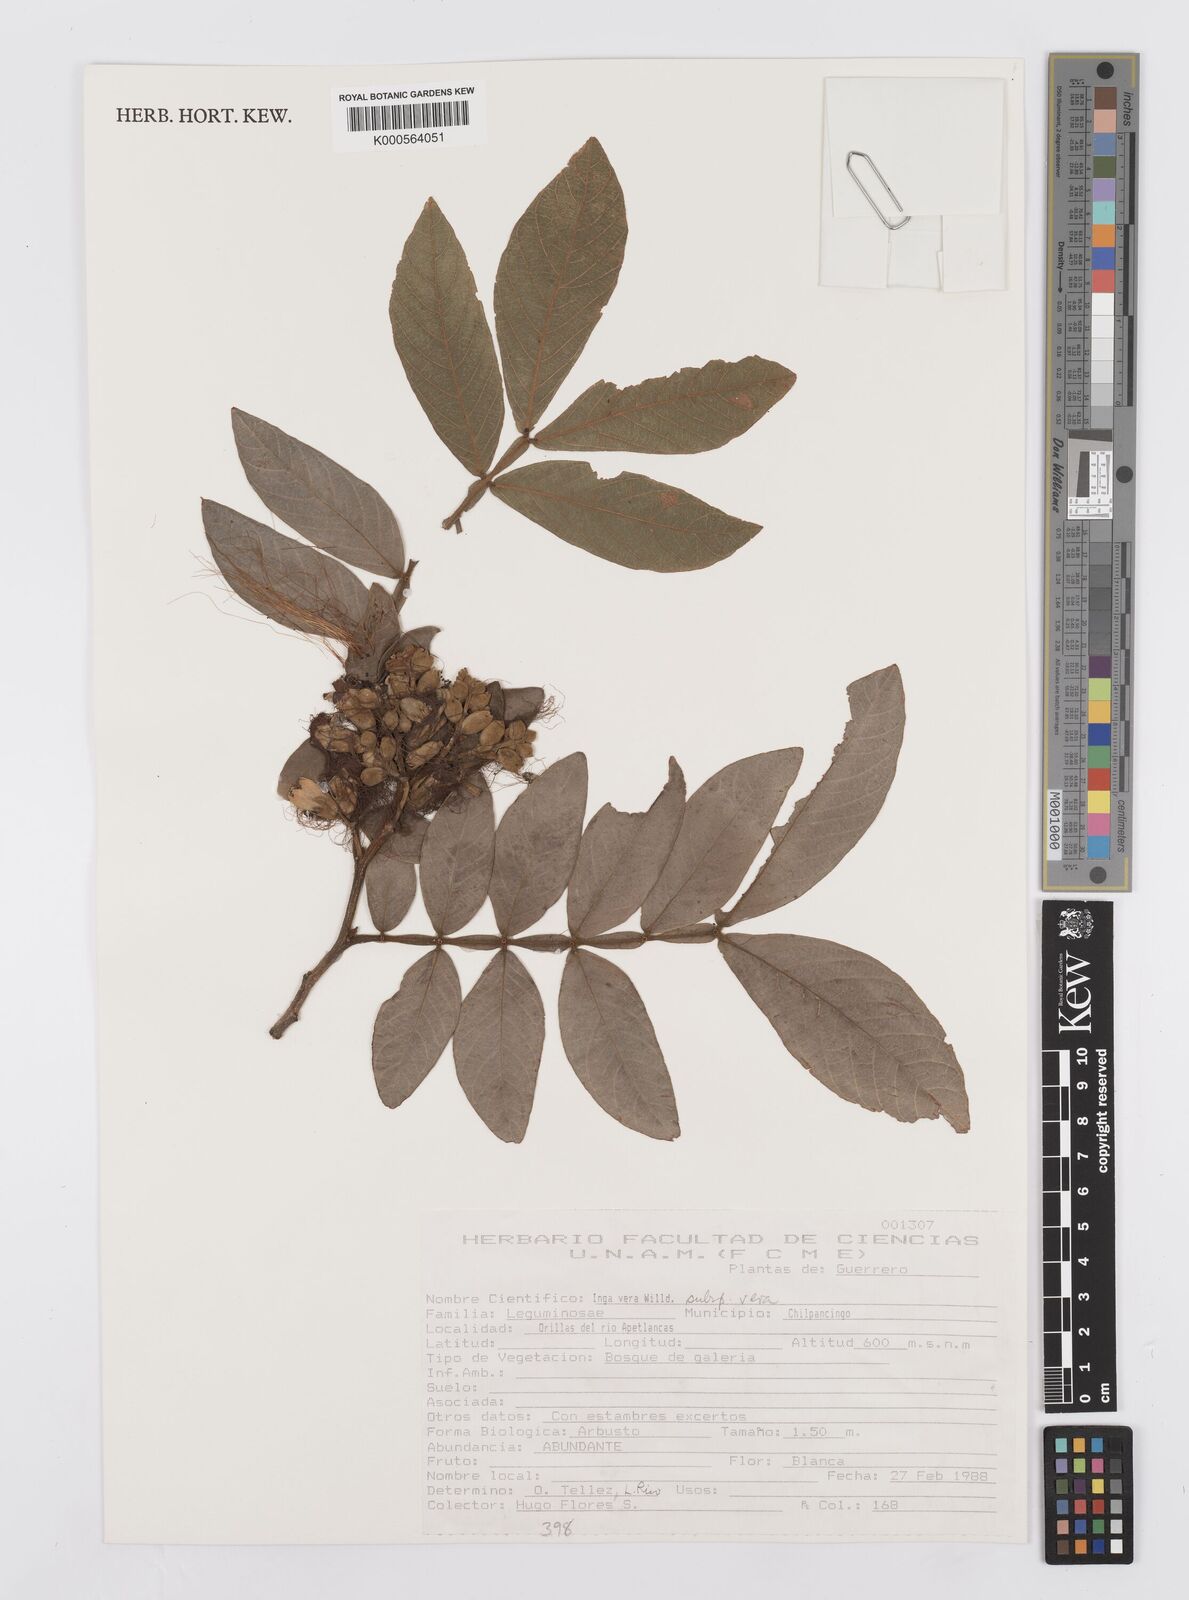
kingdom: Plantae
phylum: Tracheophyta
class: Magnoliopsida
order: Fabales
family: Fabaceae
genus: Inga
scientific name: Inga vera
